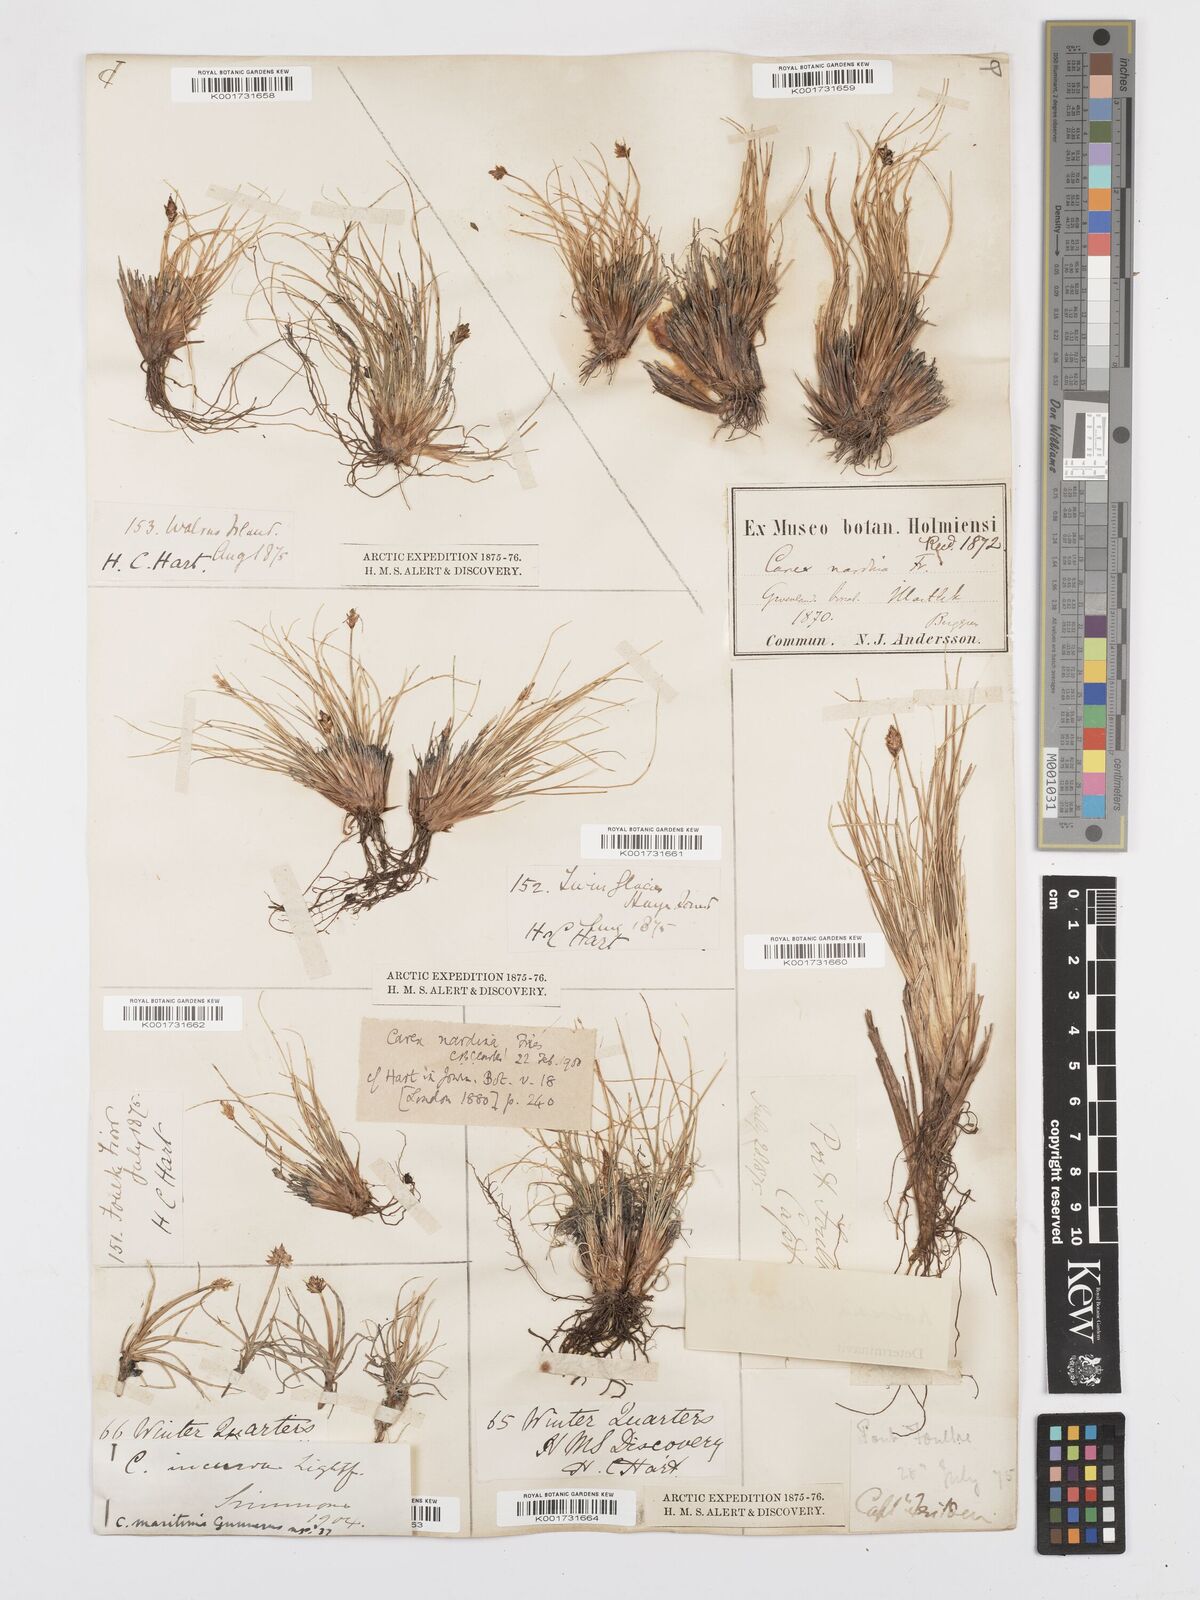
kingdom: Plantae
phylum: Tracheophyta
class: Liliopsida
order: Poales
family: Cyperaceae
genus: Carex
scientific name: Carex nardina
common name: Nard sedge
